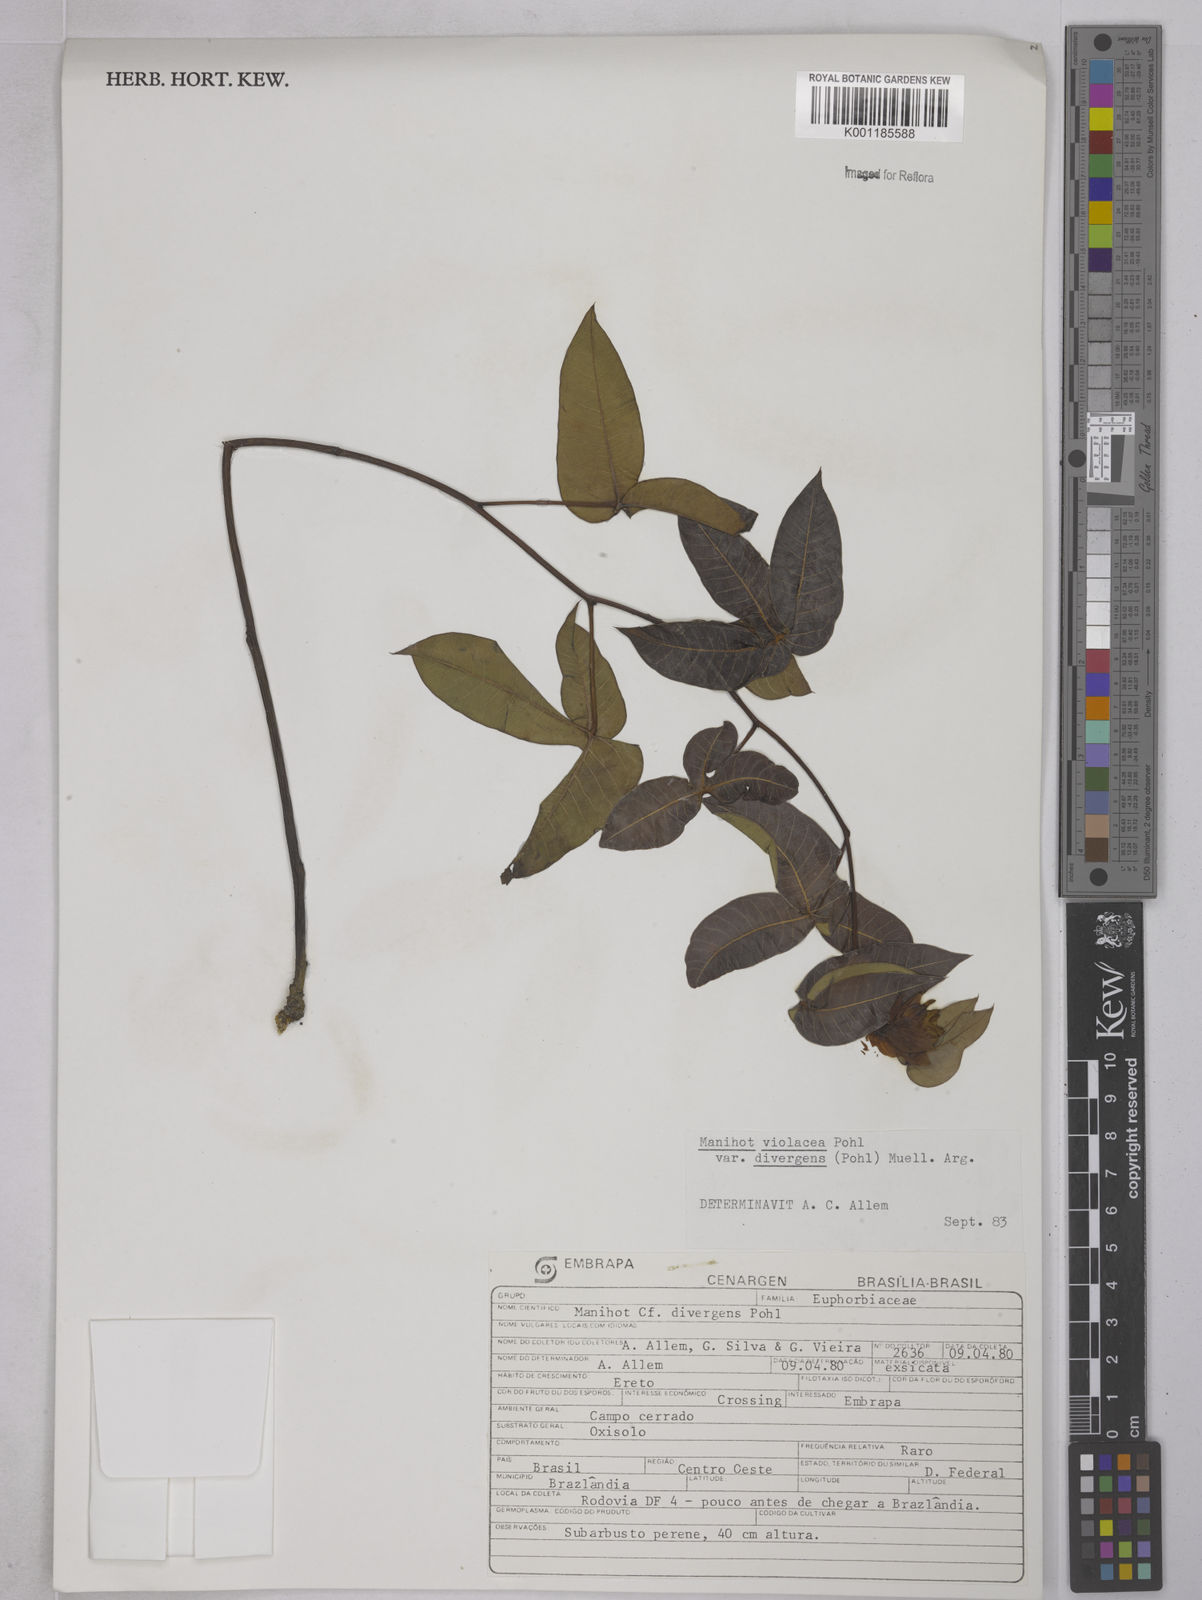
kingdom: Plantae
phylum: Tracheophyta
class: Magnoliopsida
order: Malpighiales
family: Euphorbiaceae
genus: Manihot
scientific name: Manihot divergens
